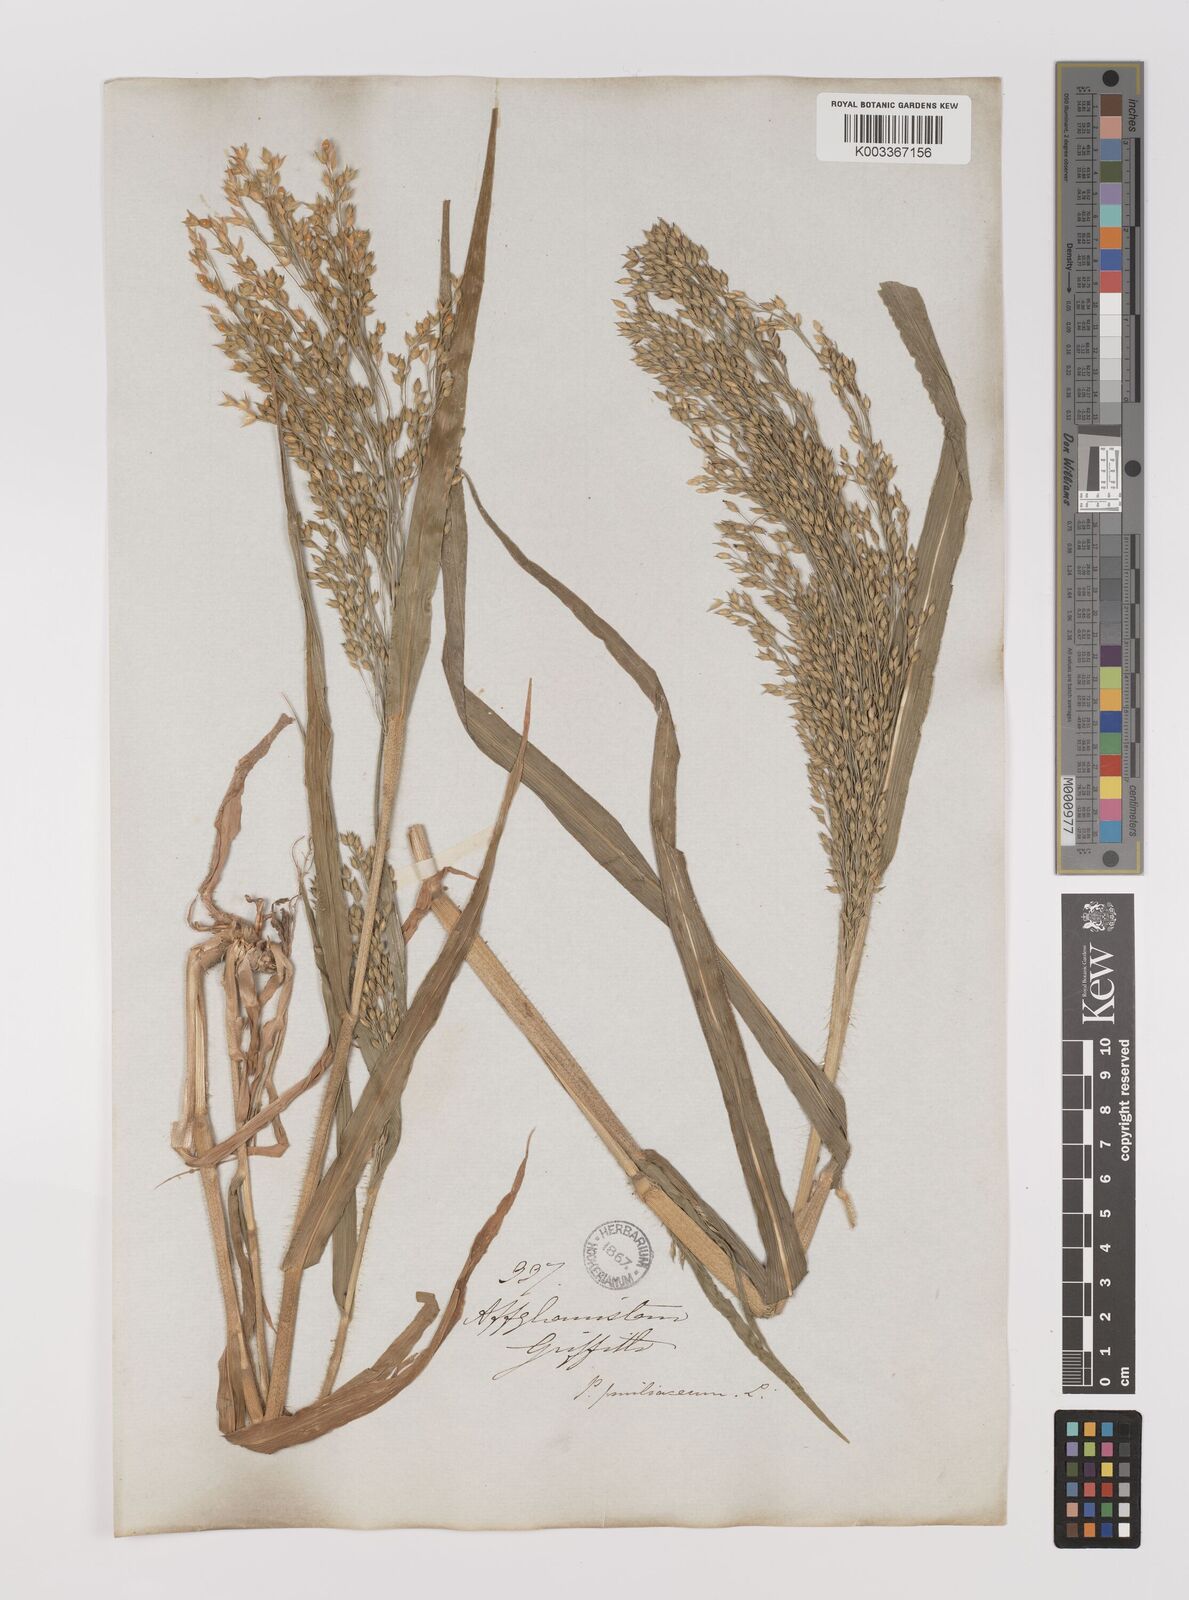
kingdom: Plantae
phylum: Tracheophyta
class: Liliopsida
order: Poales
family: Poaceae
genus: Panicum
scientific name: Panicum miliaceum
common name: Common millet
